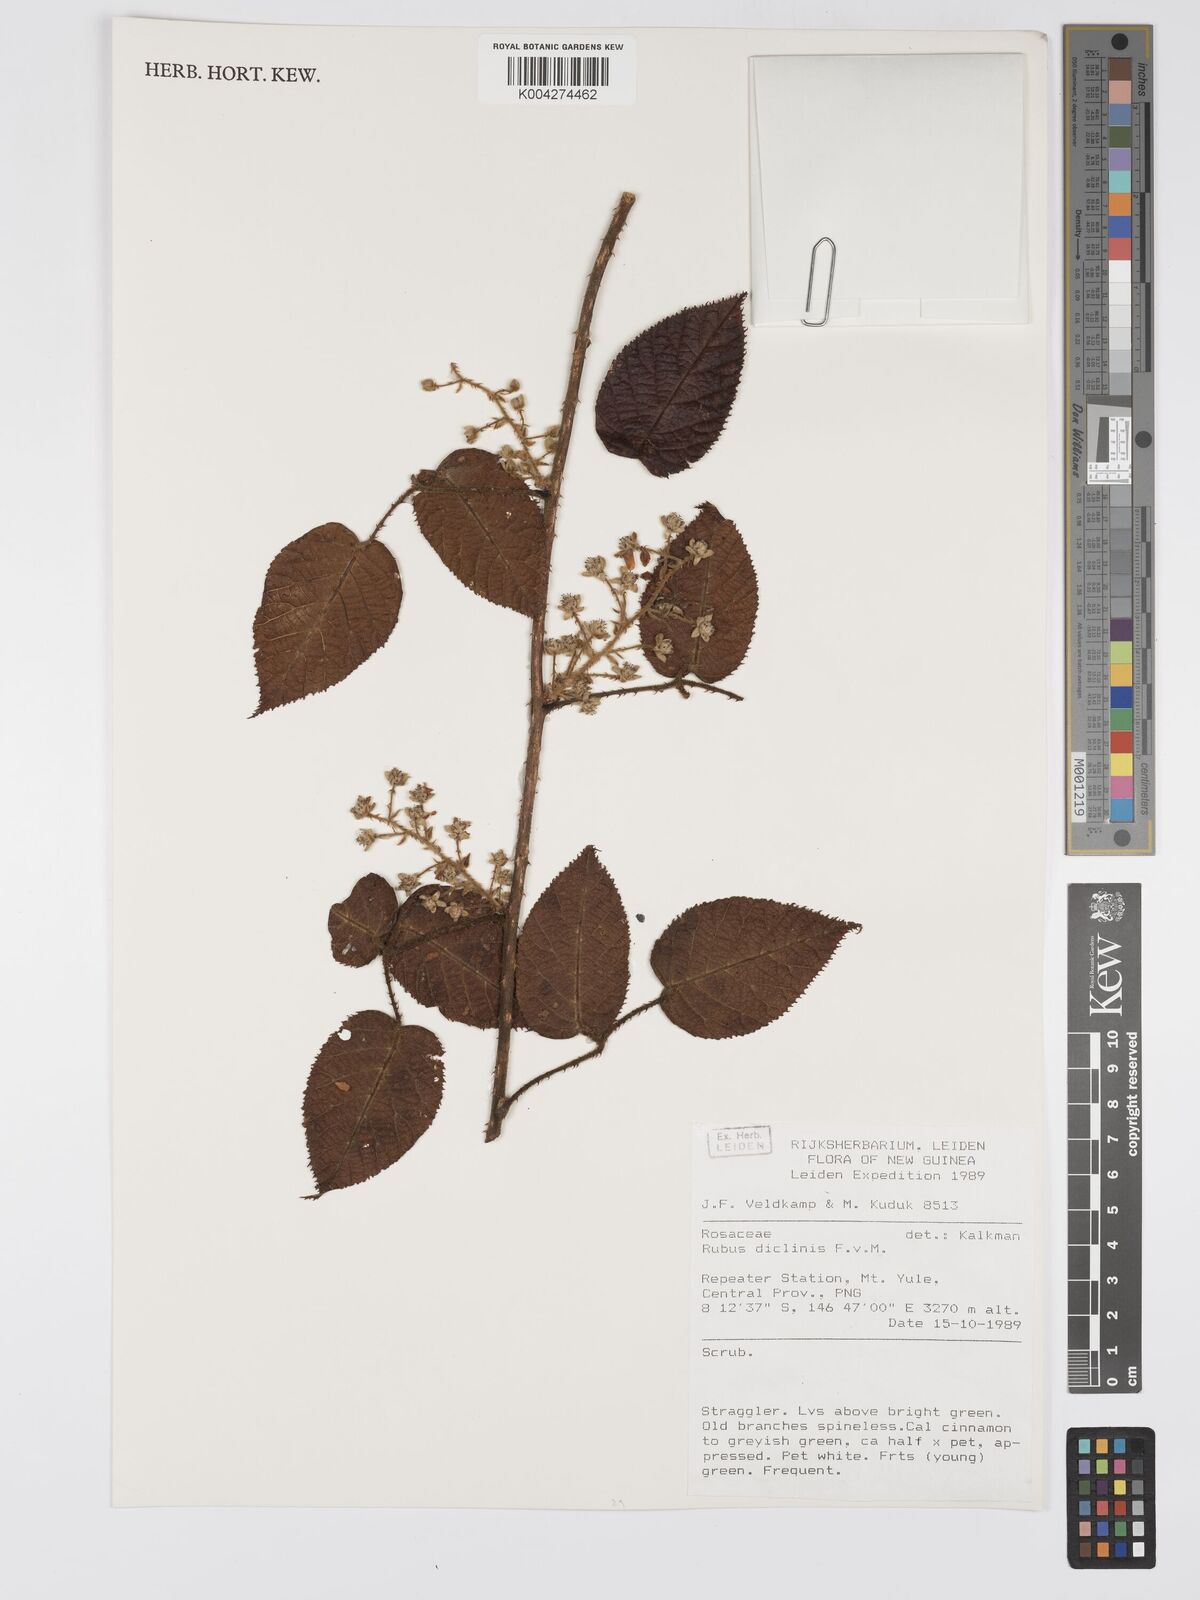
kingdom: Plantae
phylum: Tracheophyta
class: Magnoliopsida
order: Rosales
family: Rosaceae
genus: Rubus
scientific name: Rubus diclinis
